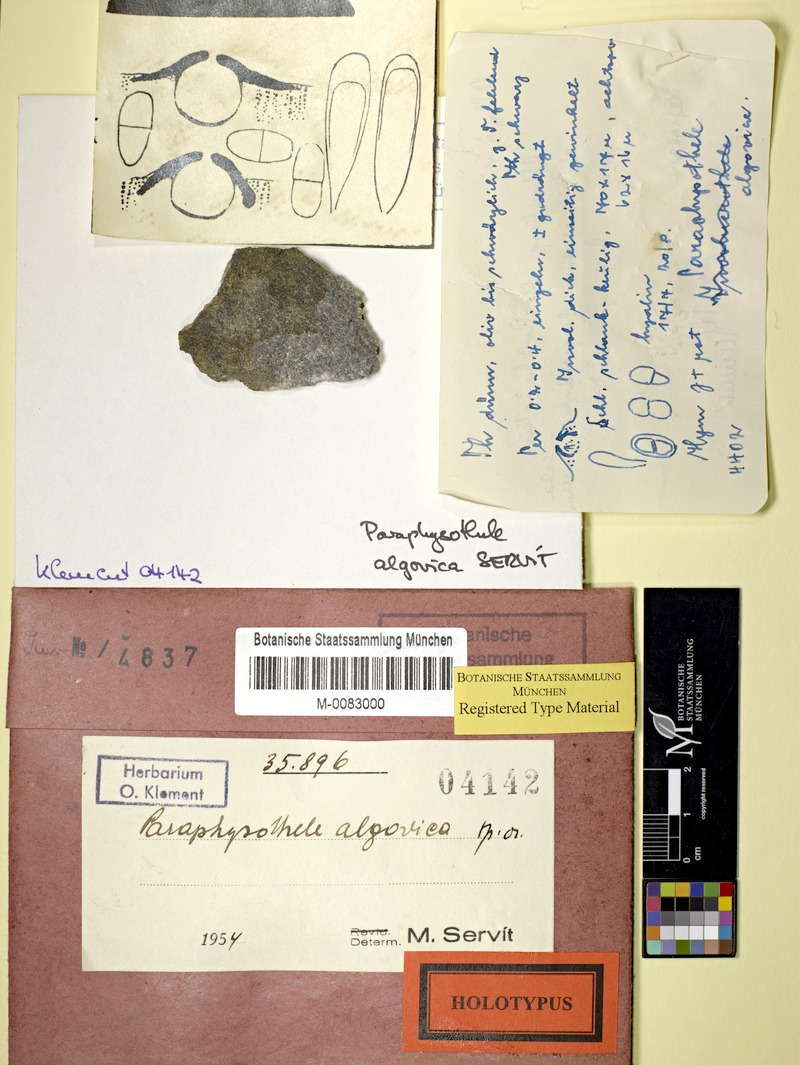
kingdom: Fungi
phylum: Ascomycota
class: Dothideomycetes
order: Trypetheliales
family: Trypetheliaceae
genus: Arthopyrenia
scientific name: Arthopyrenia algovica
